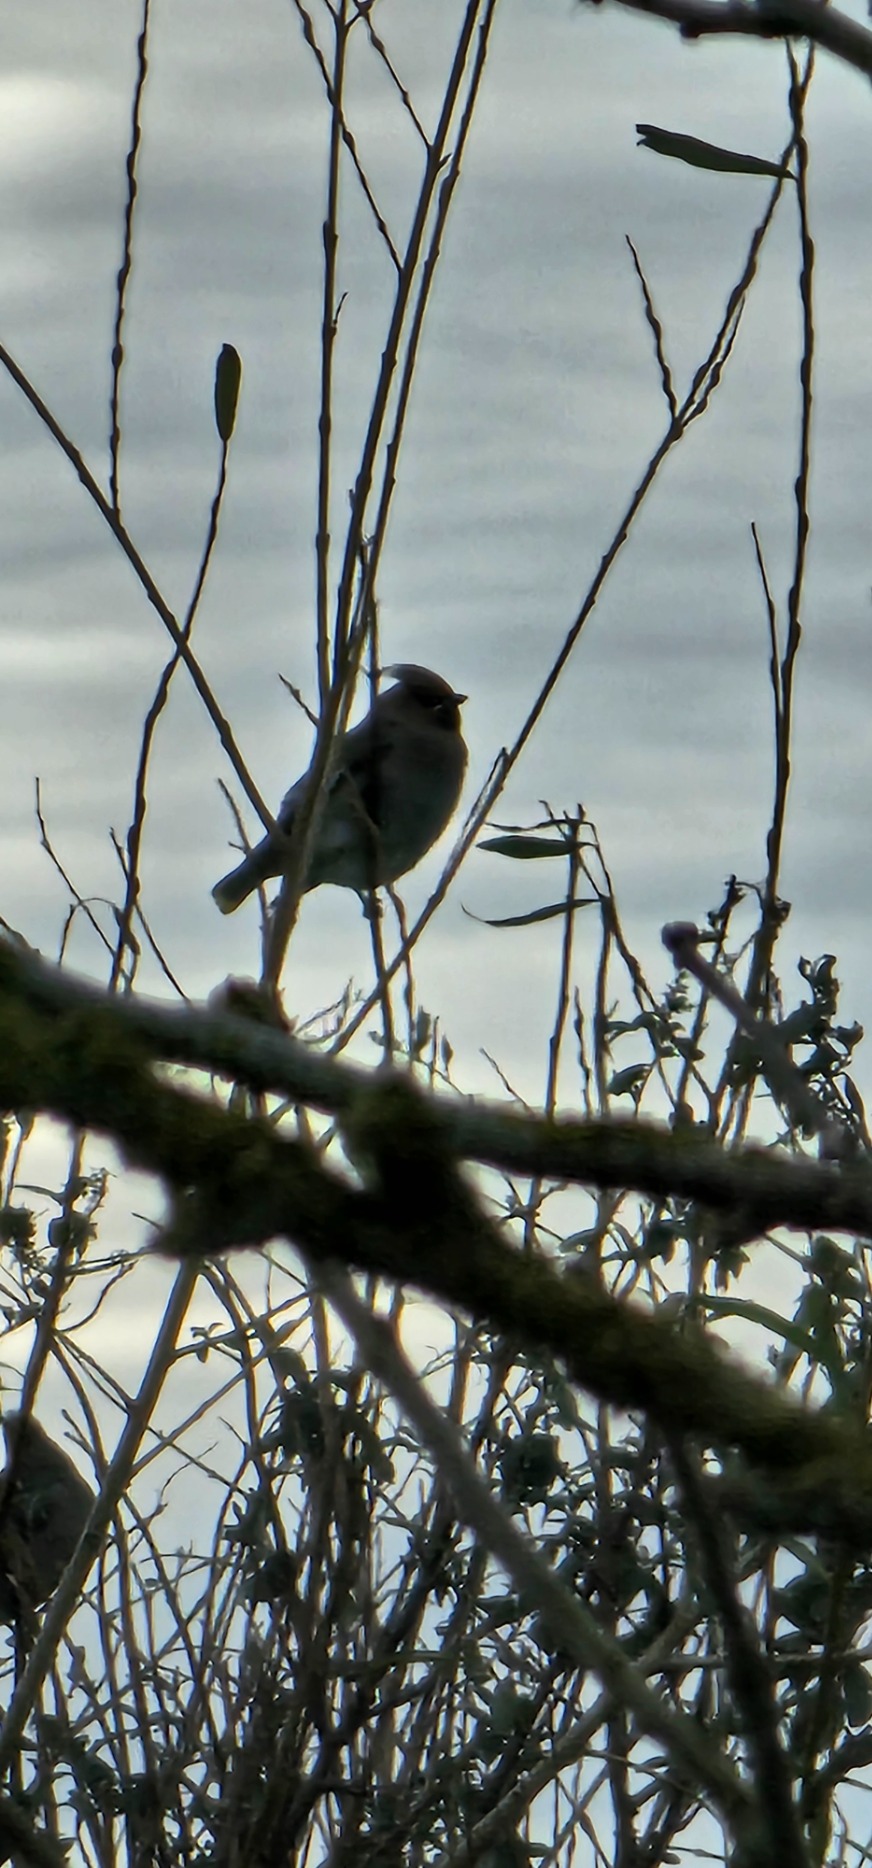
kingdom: Animalia
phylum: Chordata
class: Aves
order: Passeriformes
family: Bombycillidae
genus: Bombycilla
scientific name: Bombycilla garrulus
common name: Silkehale
